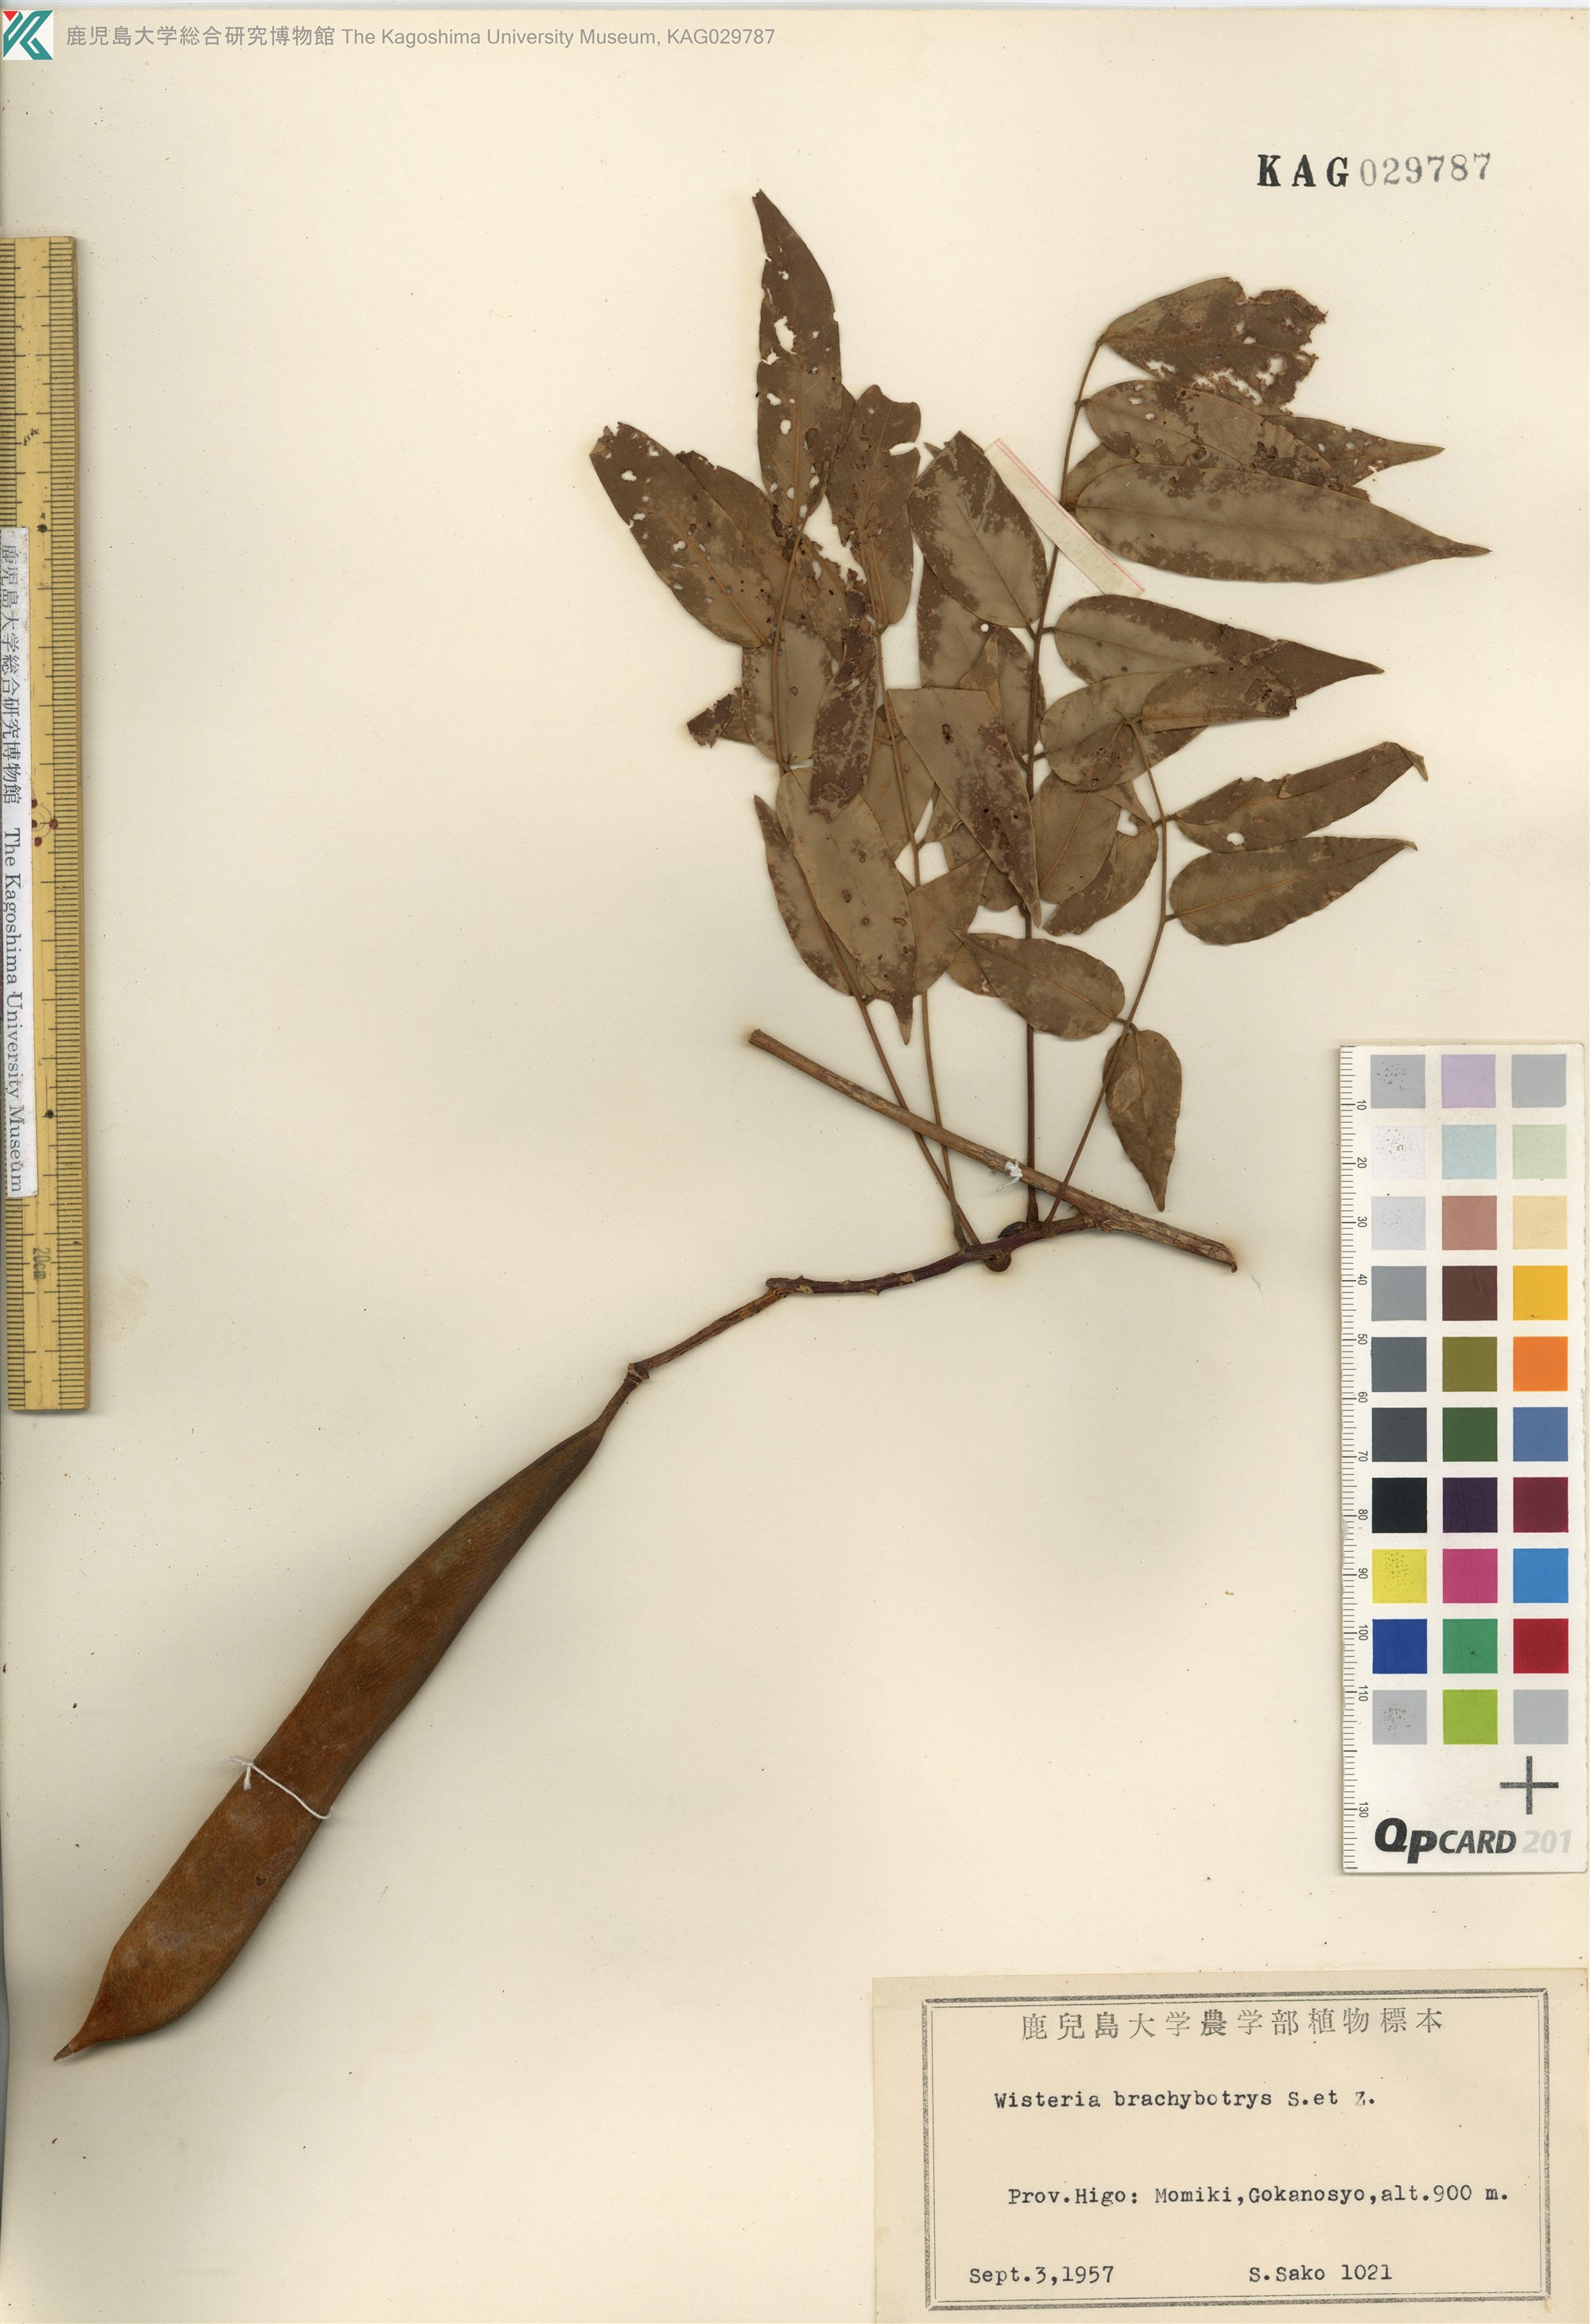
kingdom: Plantae
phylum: Tracheophyta
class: Magnoliopsida
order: Fabales
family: Fabaceae
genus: Wisteria
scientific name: Wisteria brachybotrys
